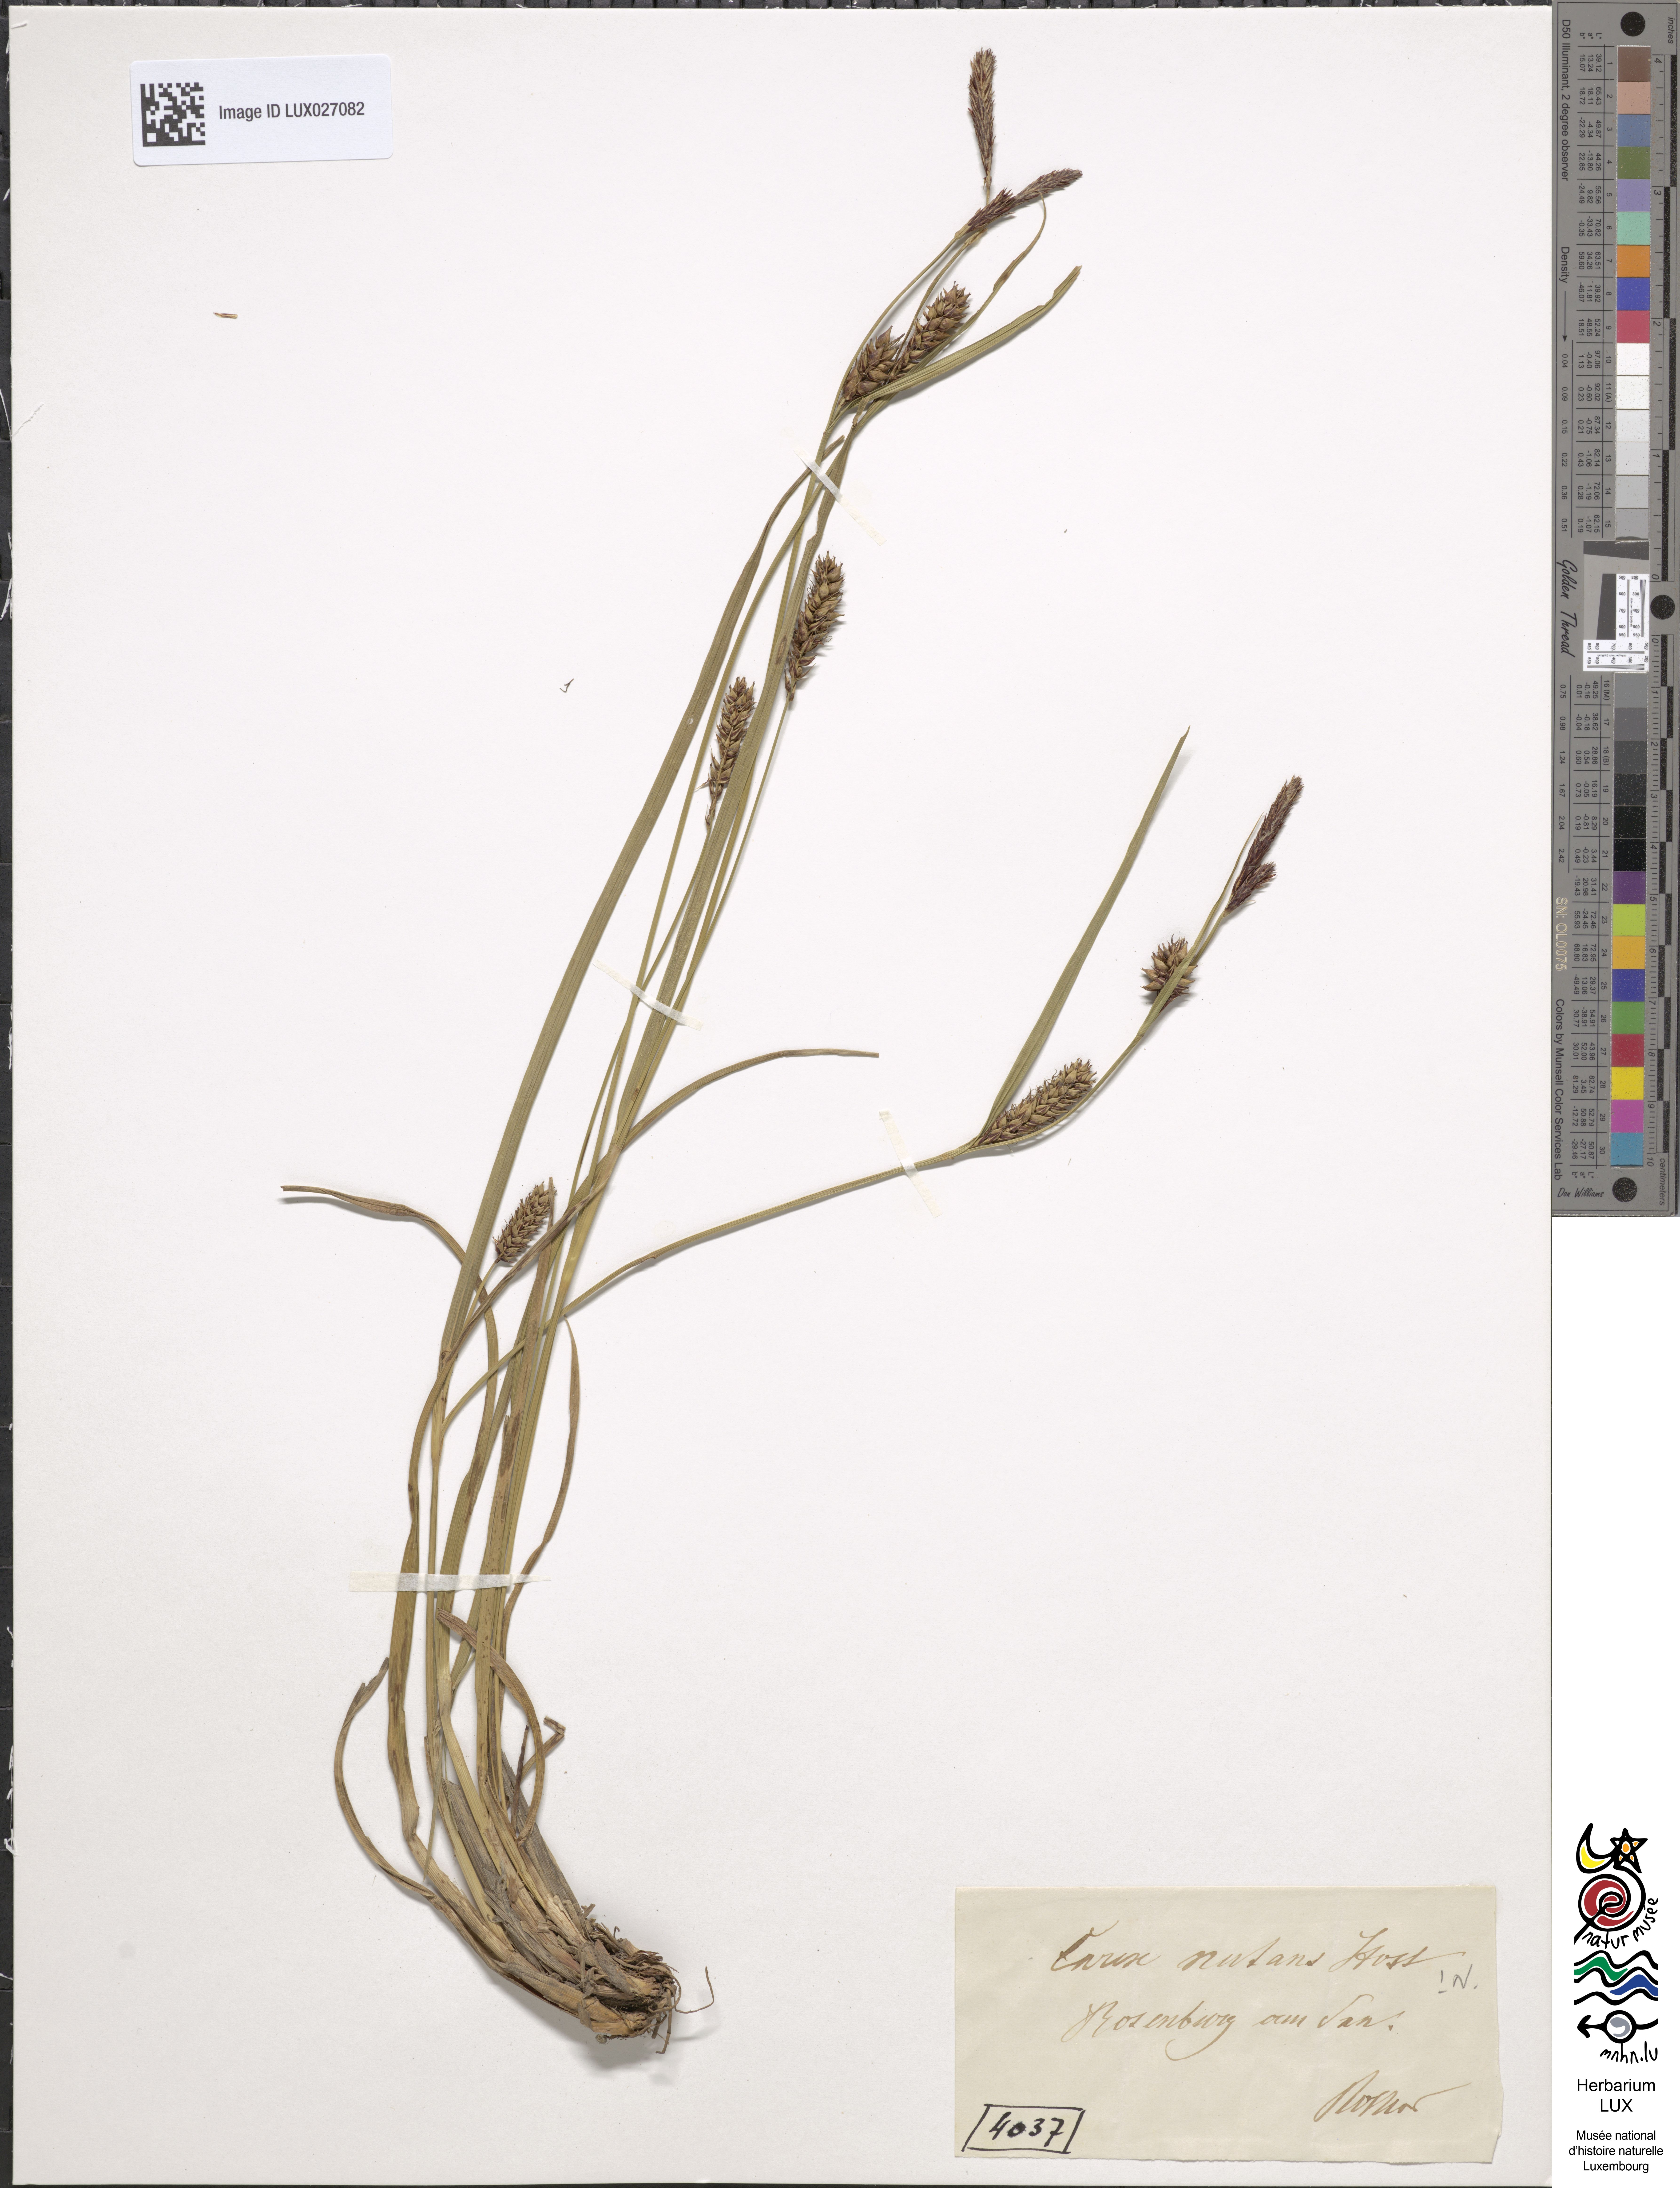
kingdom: Plantae
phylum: Tracheophyta
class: Liliopsida
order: Poales
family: Cyperaceae
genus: Carex
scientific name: Carex melanostachya
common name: Black-spiked sedge
